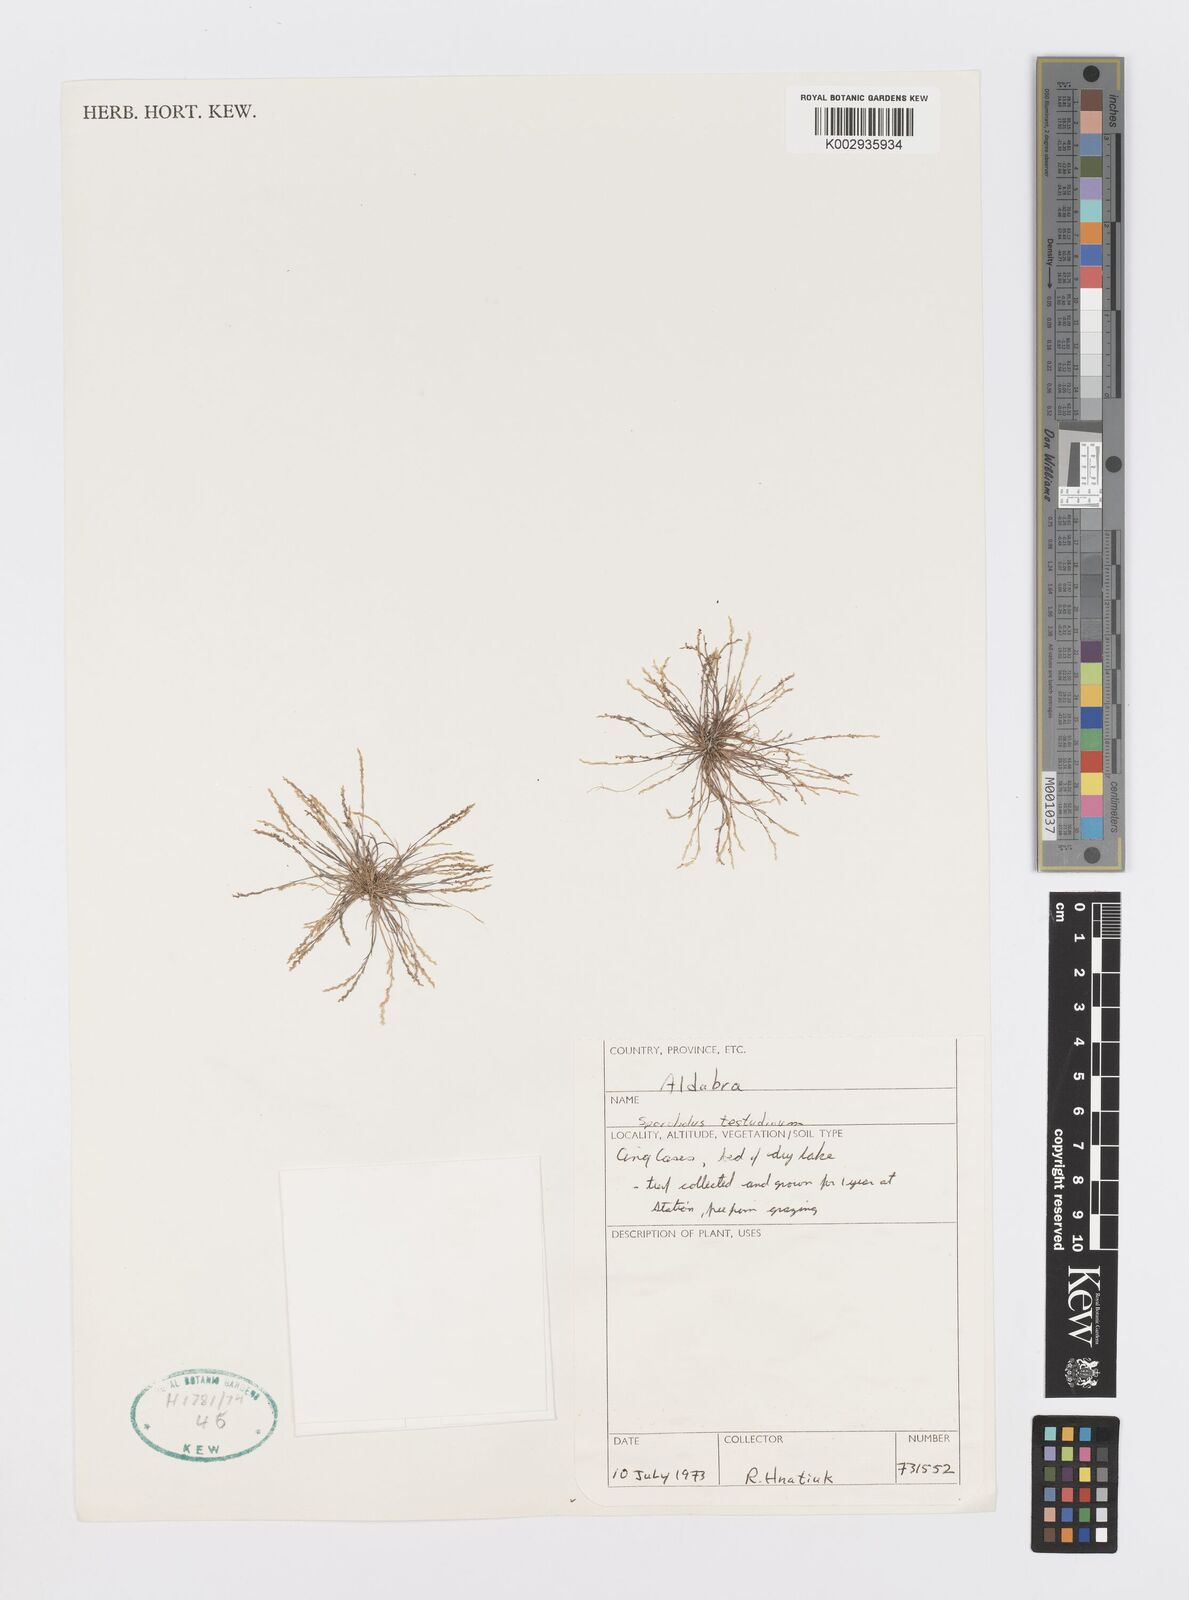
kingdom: Plantae
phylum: Tracheophyta
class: Liliopsida
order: Poales
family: Poaceae
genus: Sporobolus
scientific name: Sporobolus testudinum
